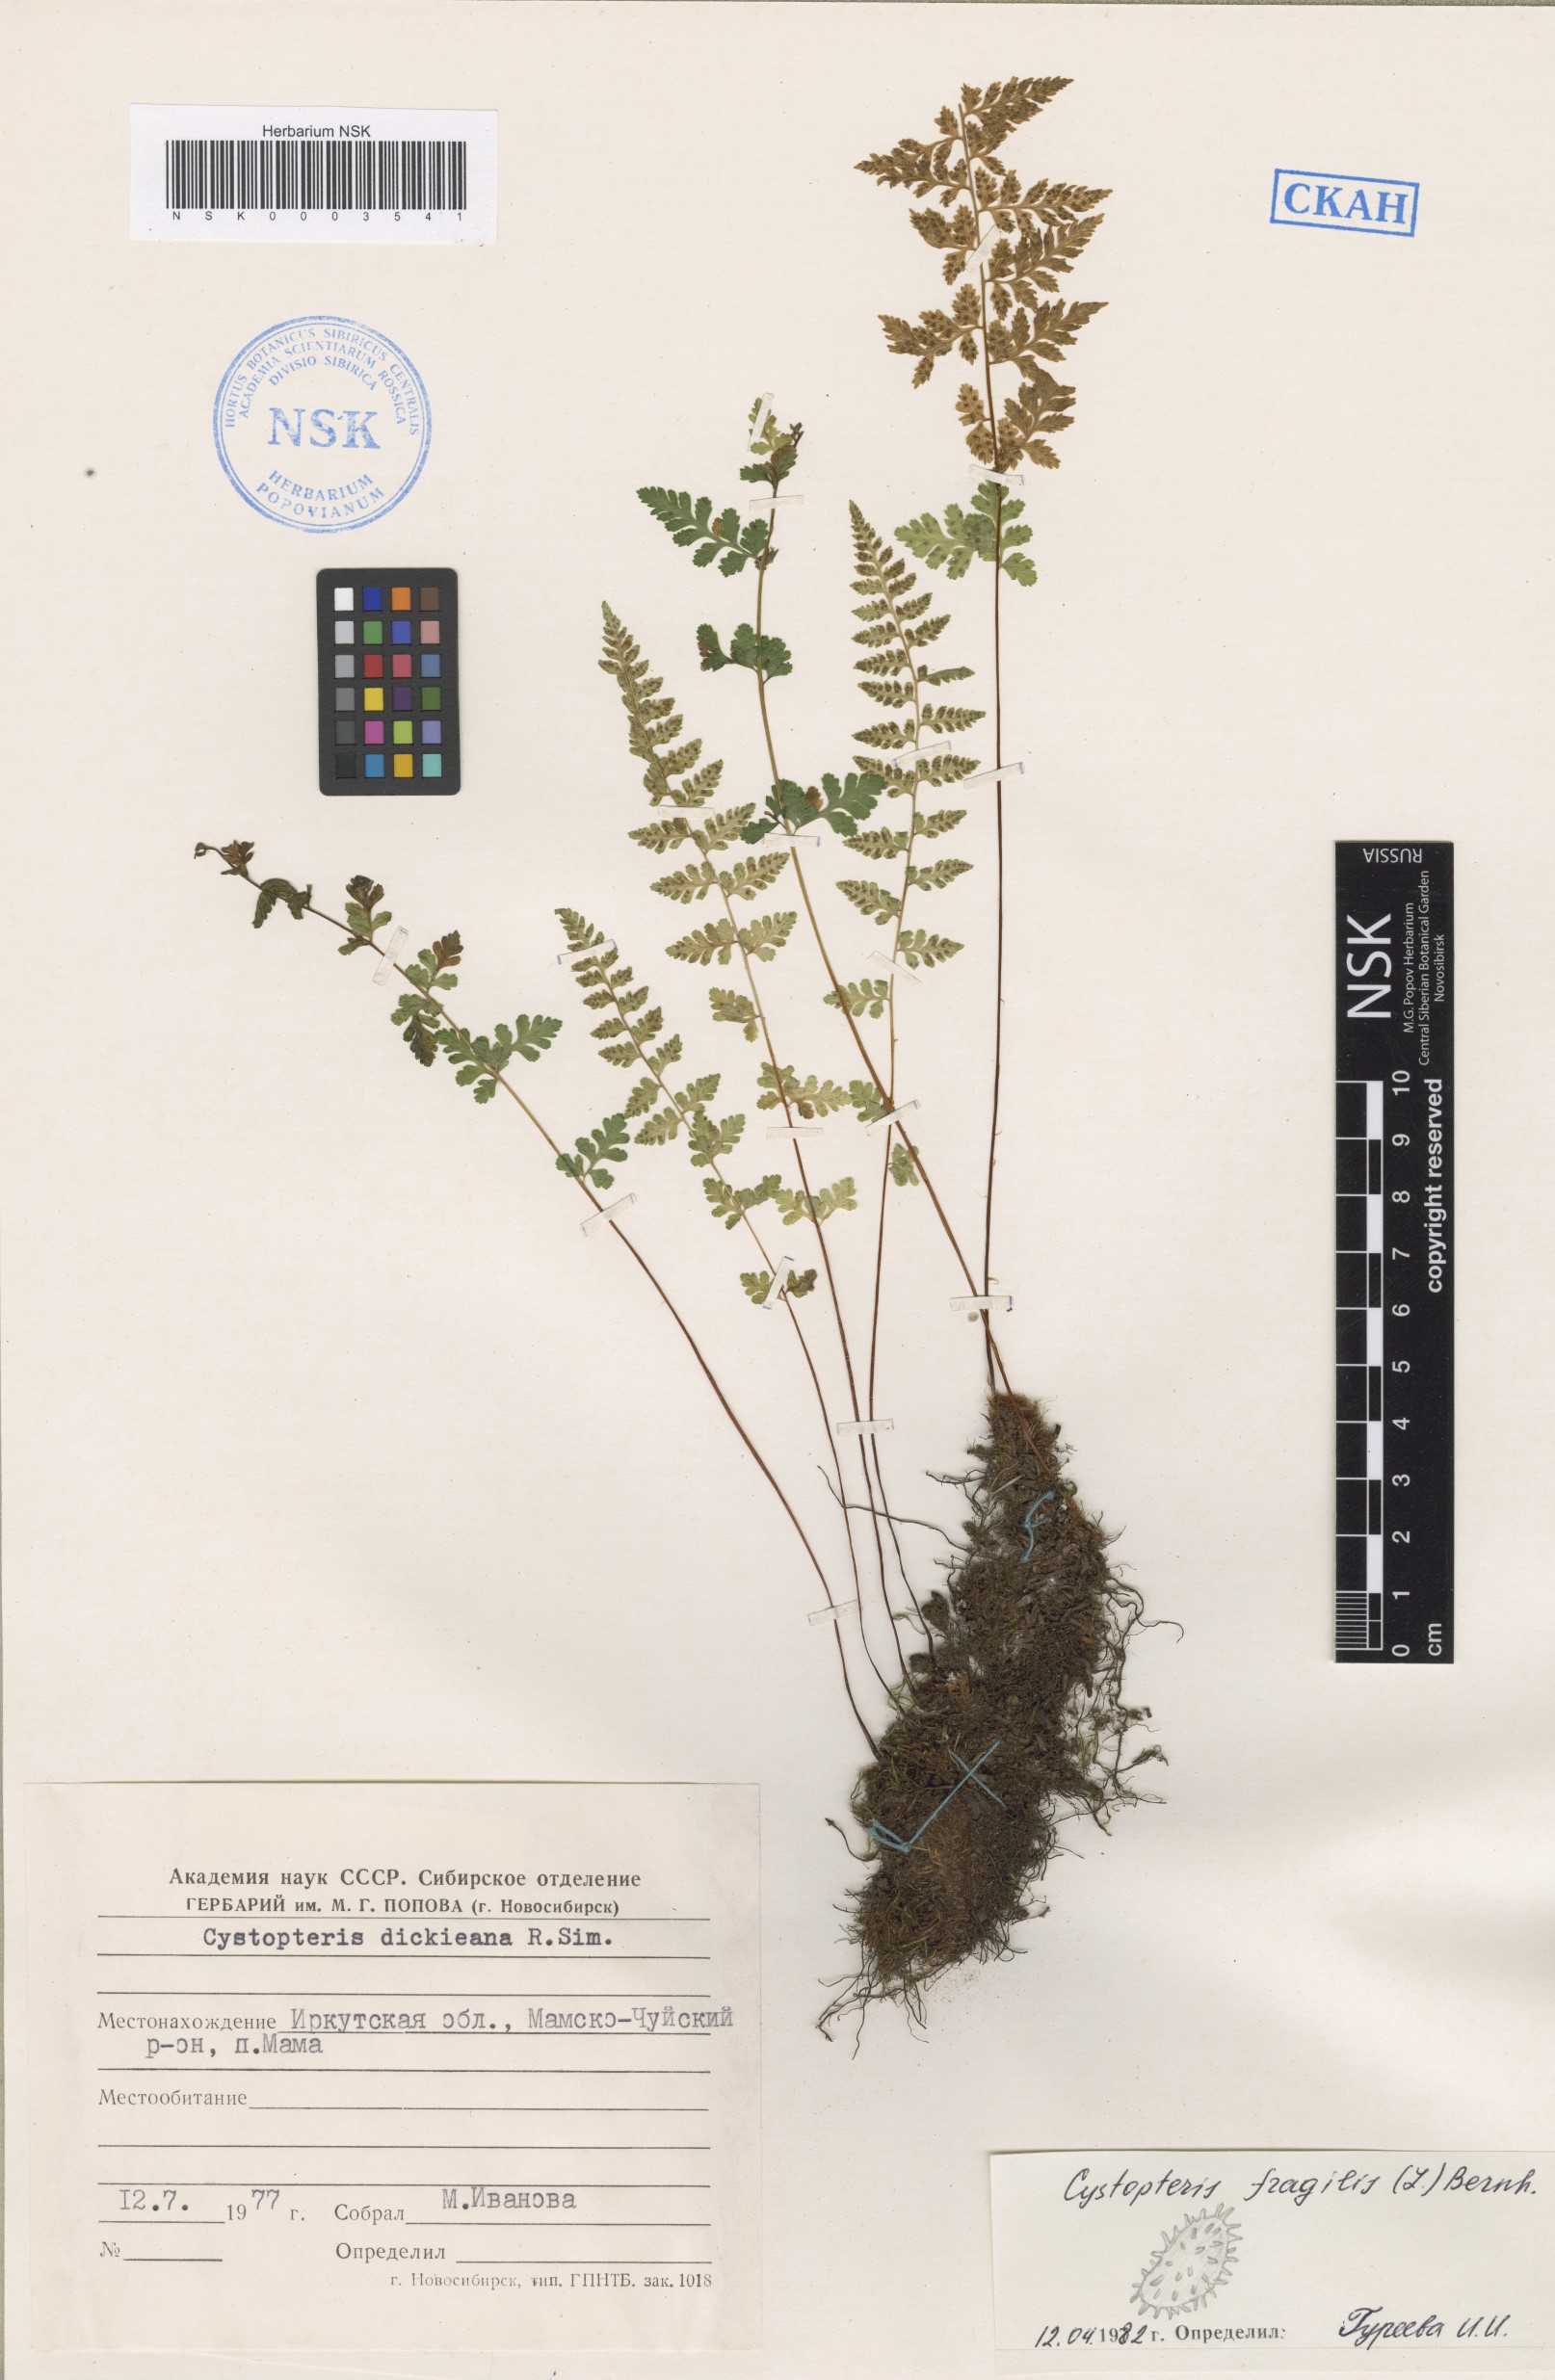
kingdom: Plantae
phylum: Tracheophyta
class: Polypodiopsida
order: Polypodiales
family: Cystopteridaceae
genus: Cystopteris
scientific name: Cystopteris fragilis
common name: Brittle bladder fern
